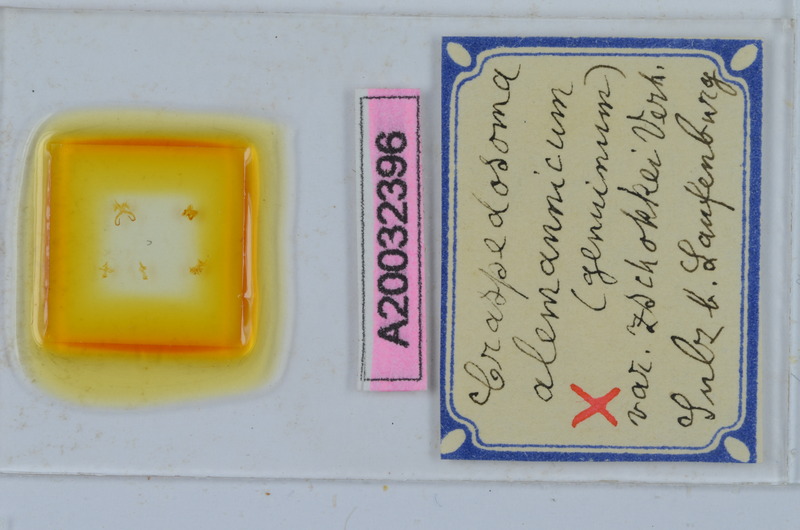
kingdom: Animalia
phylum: Arthropoda
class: Diplopoda
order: Chordeumatida
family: Craspedosomatidae
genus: Craspedosoma
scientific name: Craspedosoma rawlinsii
